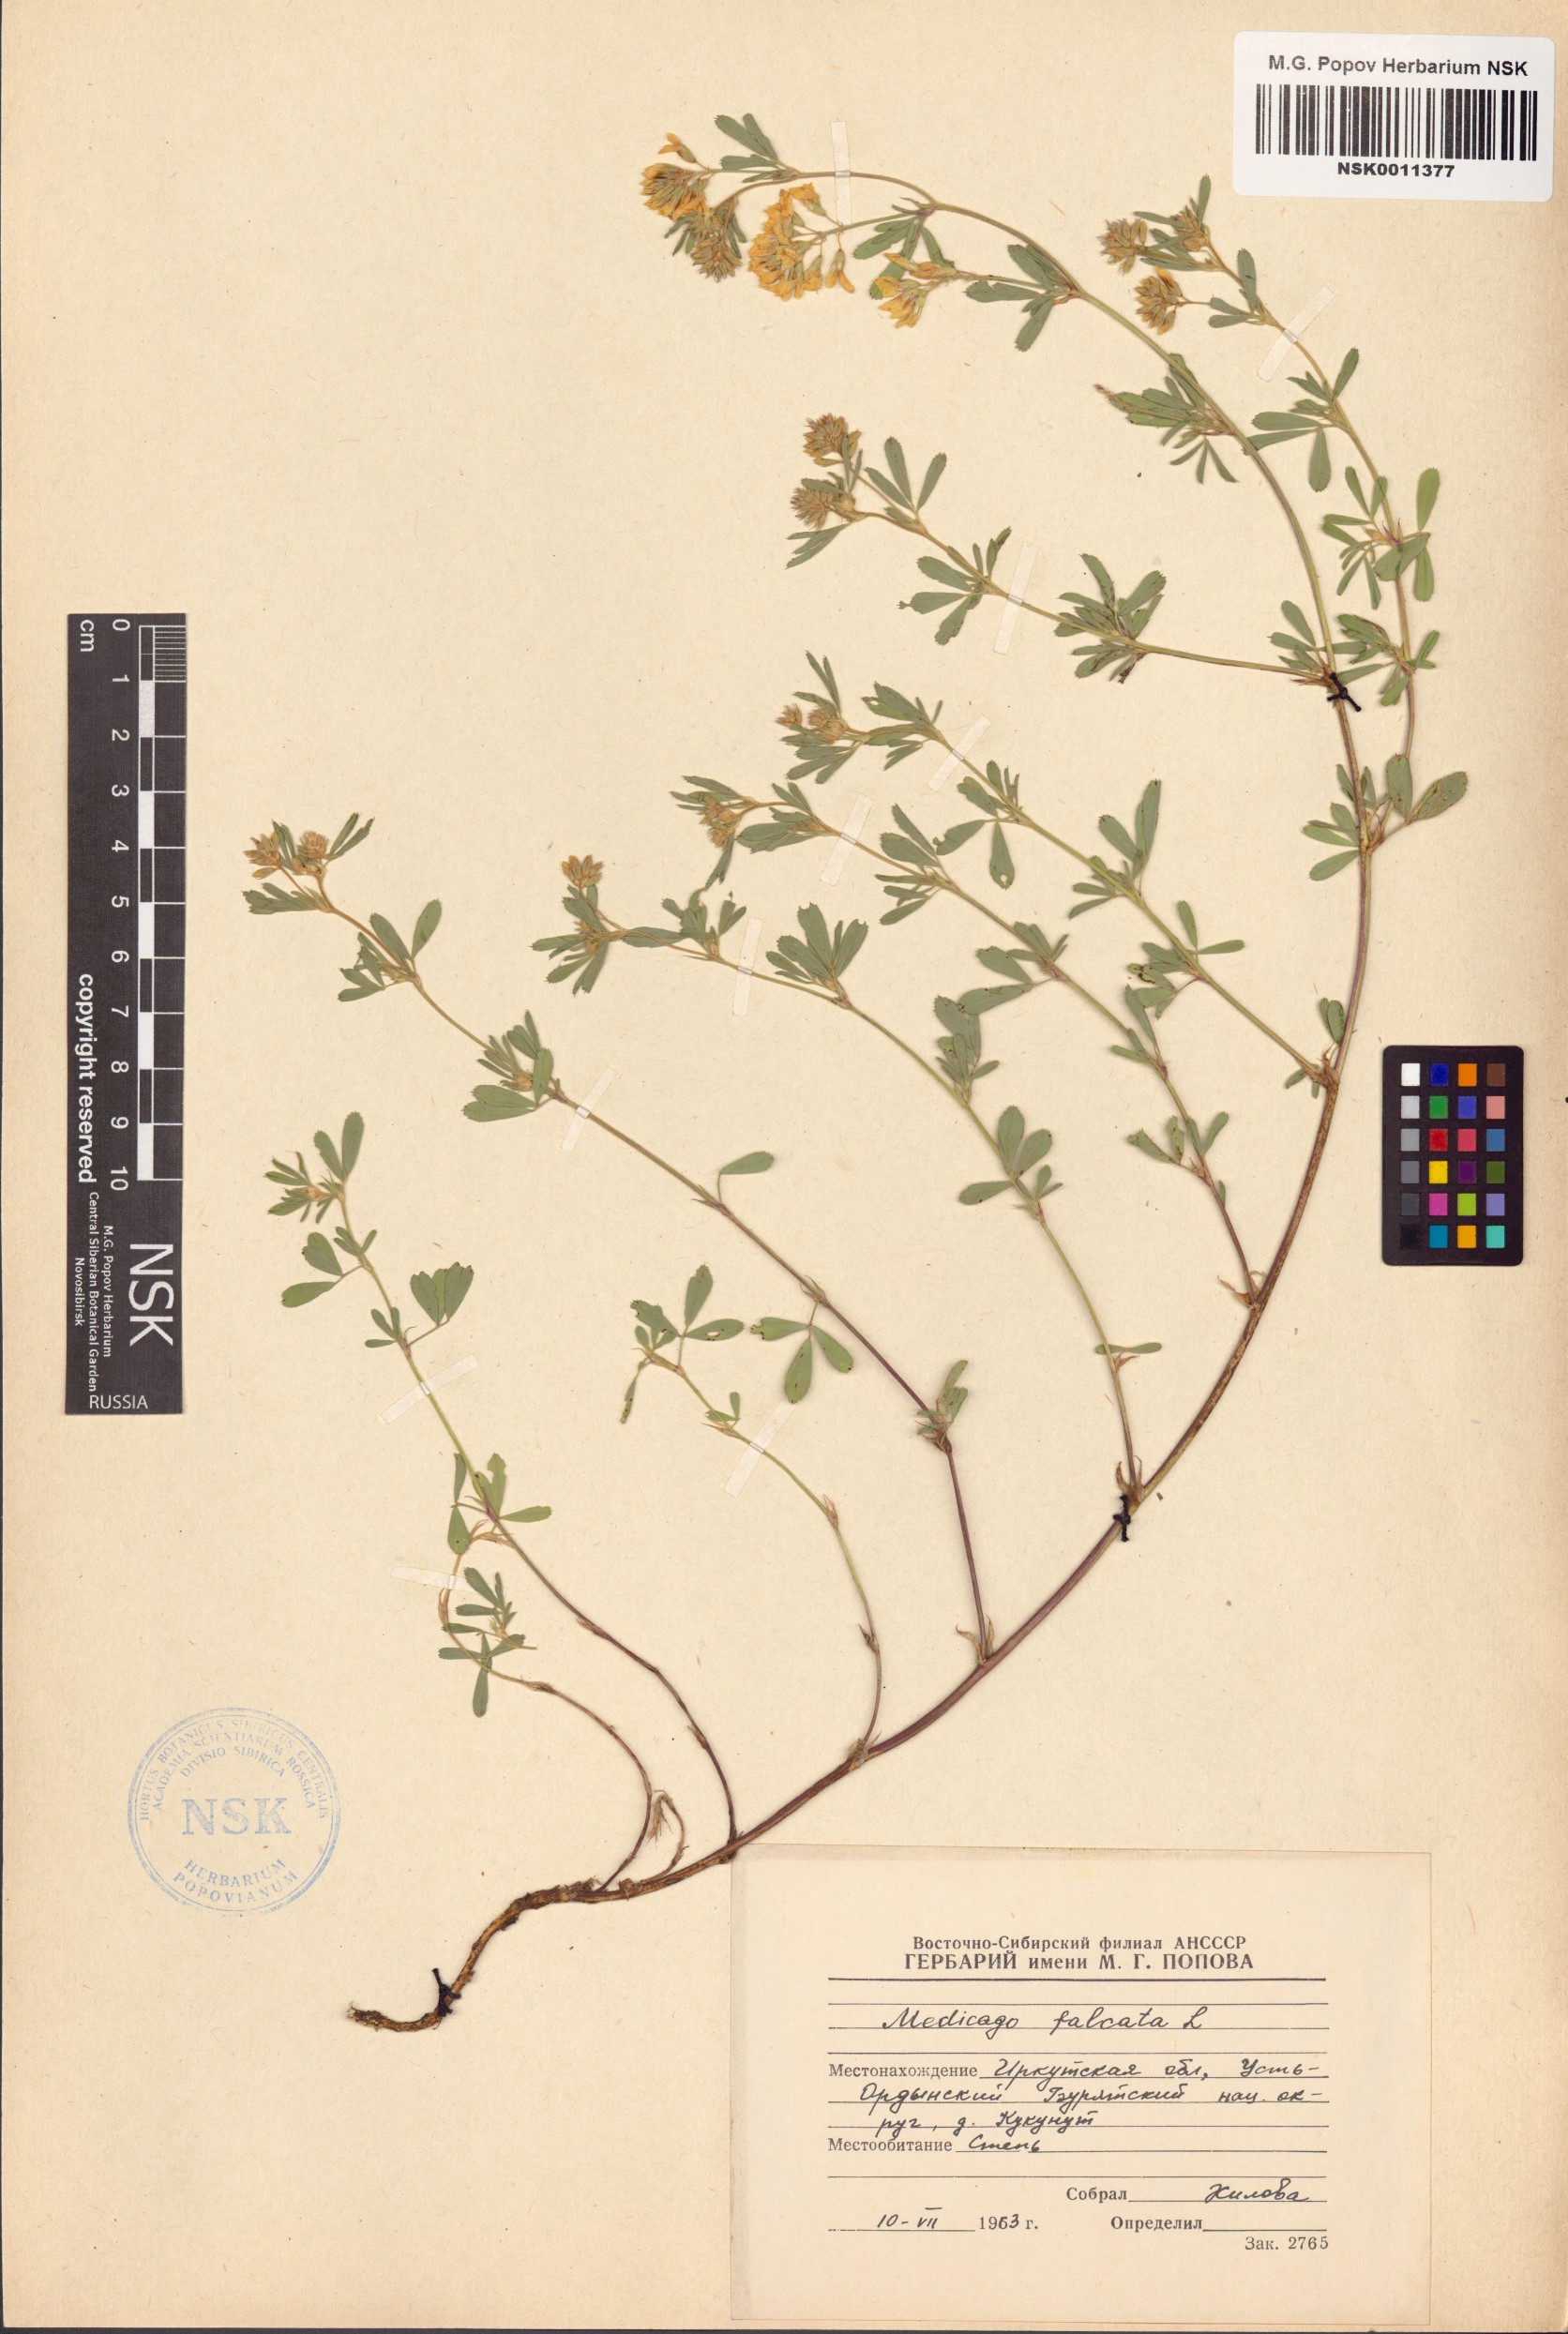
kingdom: Plantae
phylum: Tracheophyta
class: Magnoliopsida
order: Fabales
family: Fabaceae
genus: Medicago
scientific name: Medicago falcata
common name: Sickle medick
